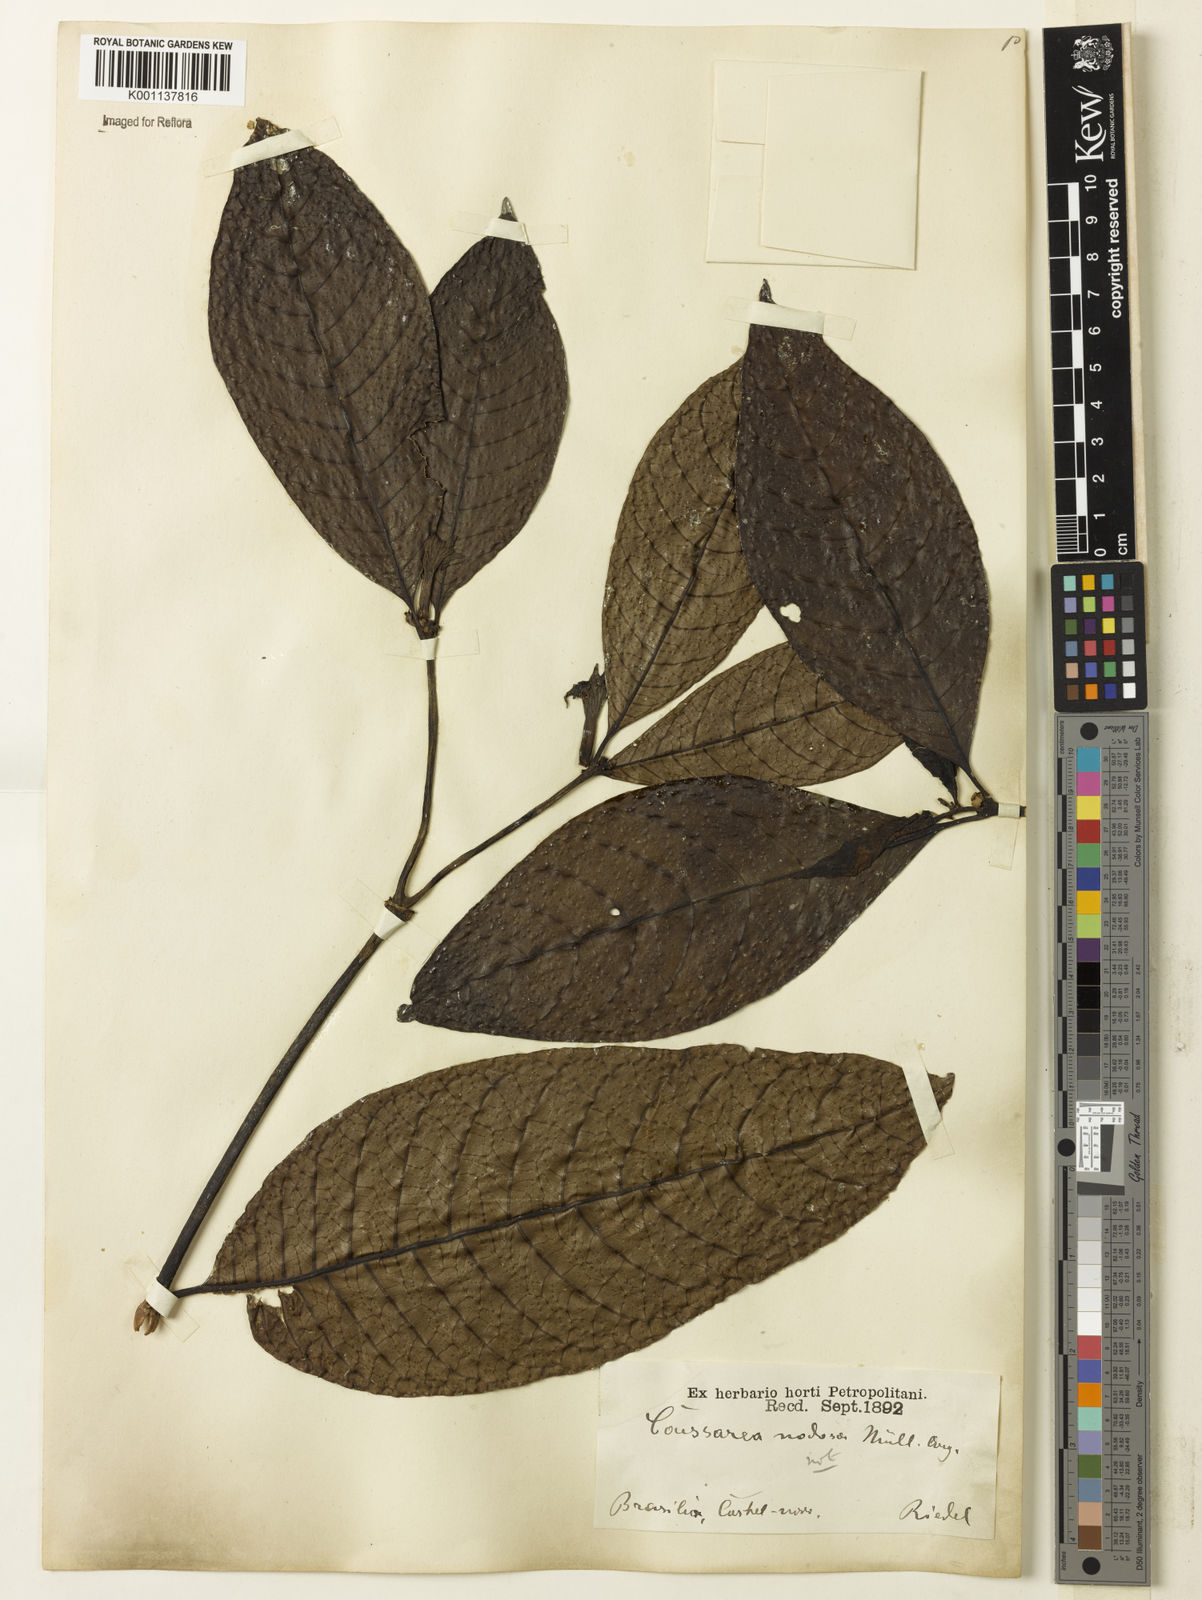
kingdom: Plantae
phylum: Tracheophyta
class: Magnoliopsida
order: Gentianales
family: Rubiaceae
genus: Coussarea
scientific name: Coussarea
